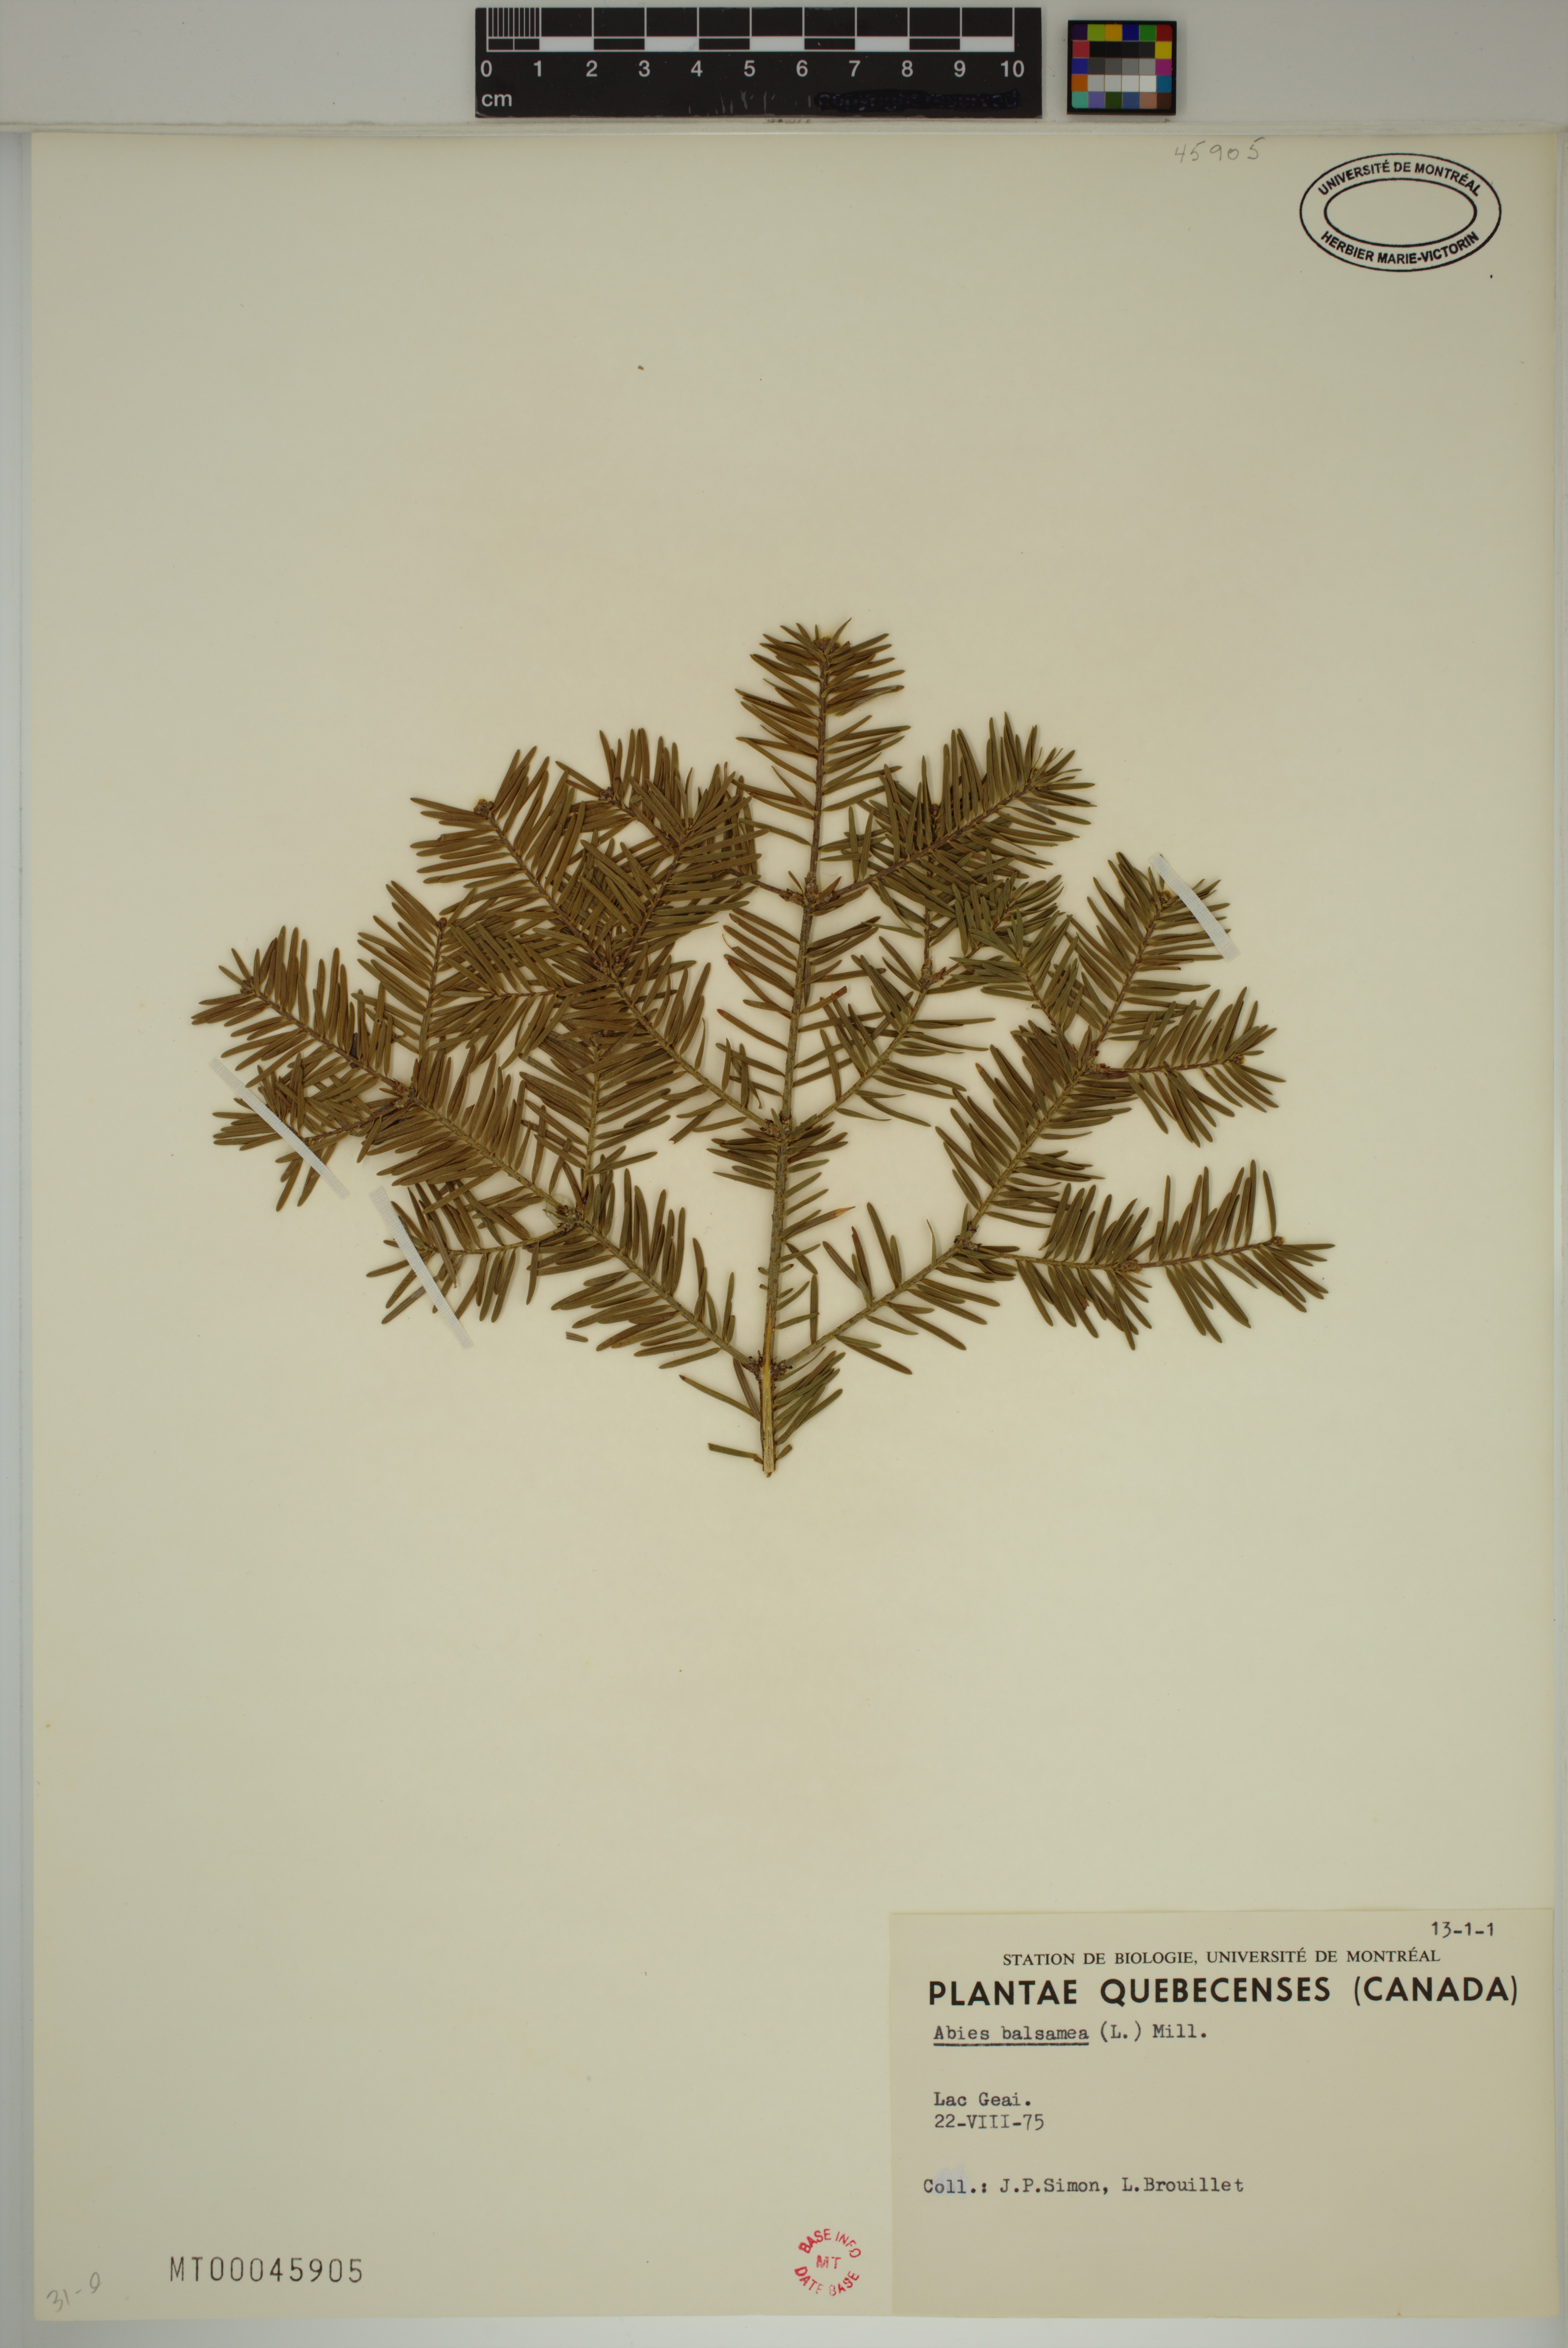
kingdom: Plantae
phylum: Tracheophyta
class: Pinopsida
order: Pinales
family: Pinaceae
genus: Abies
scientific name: Abies balsamea
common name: Balsam fir
